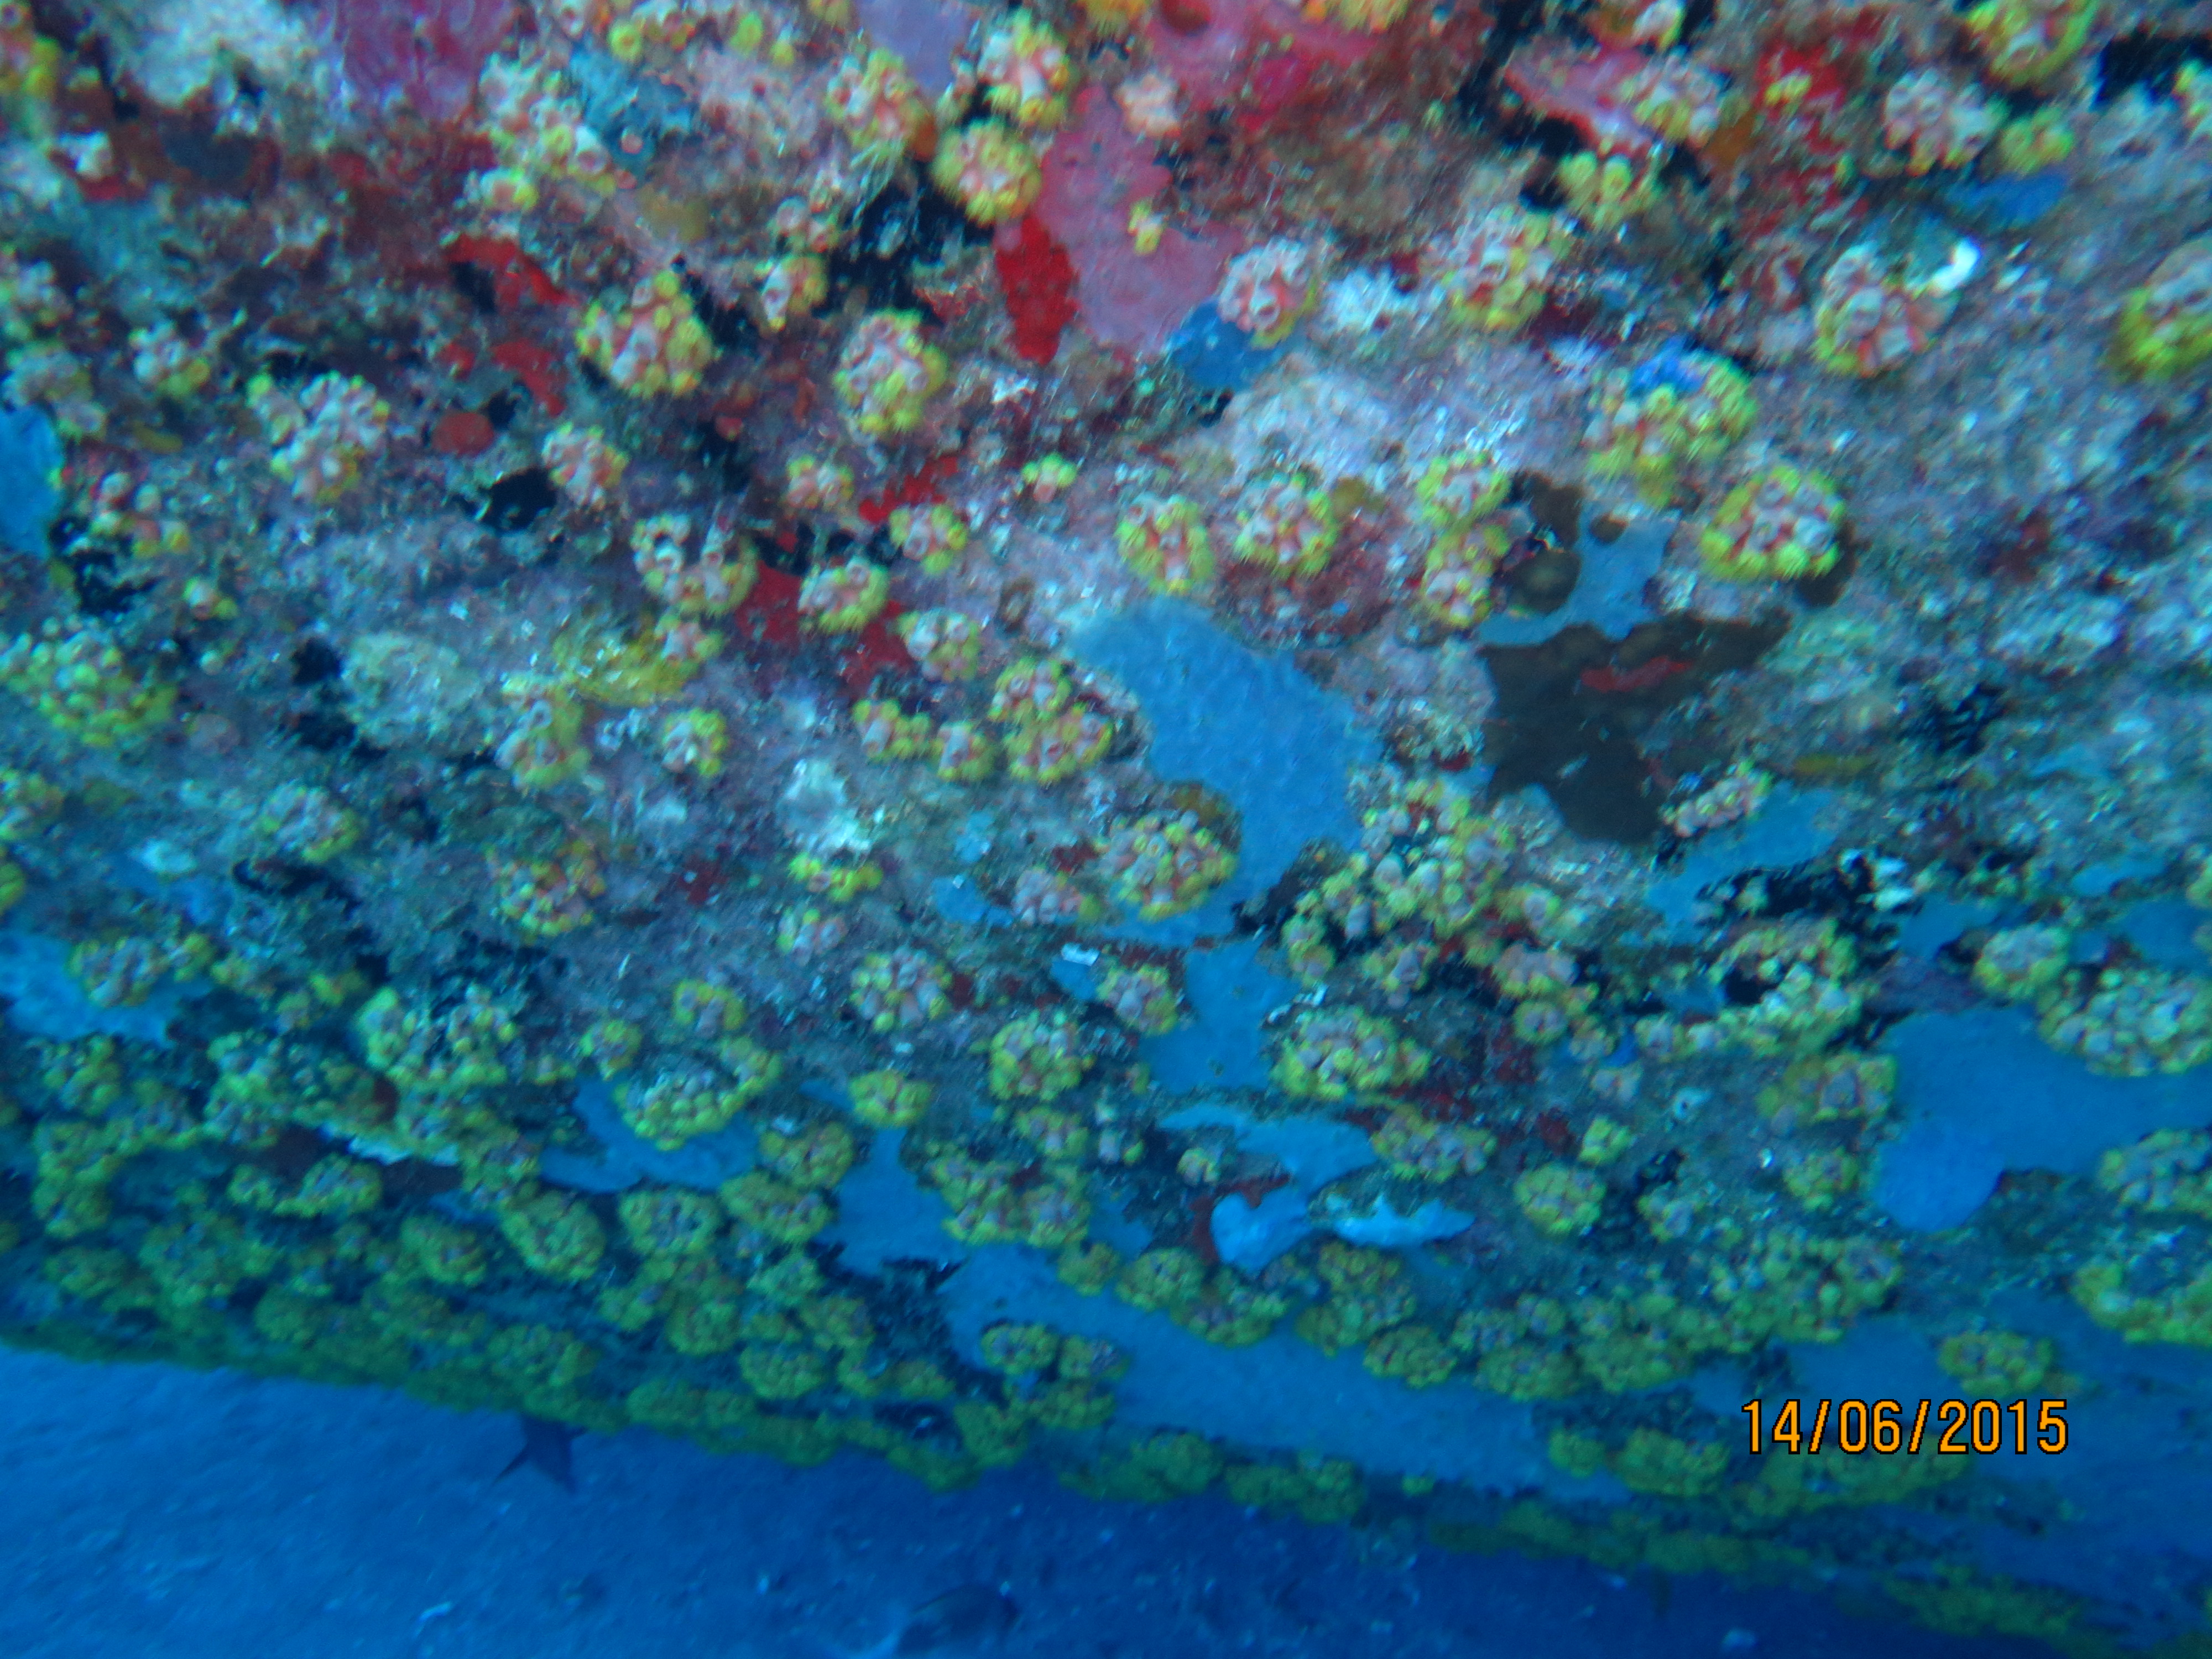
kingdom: Animalia
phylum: Echinodermata
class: Holothuroidea
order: Holothuriida
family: Holothuriidae
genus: Holothuria
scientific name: Holothuria
